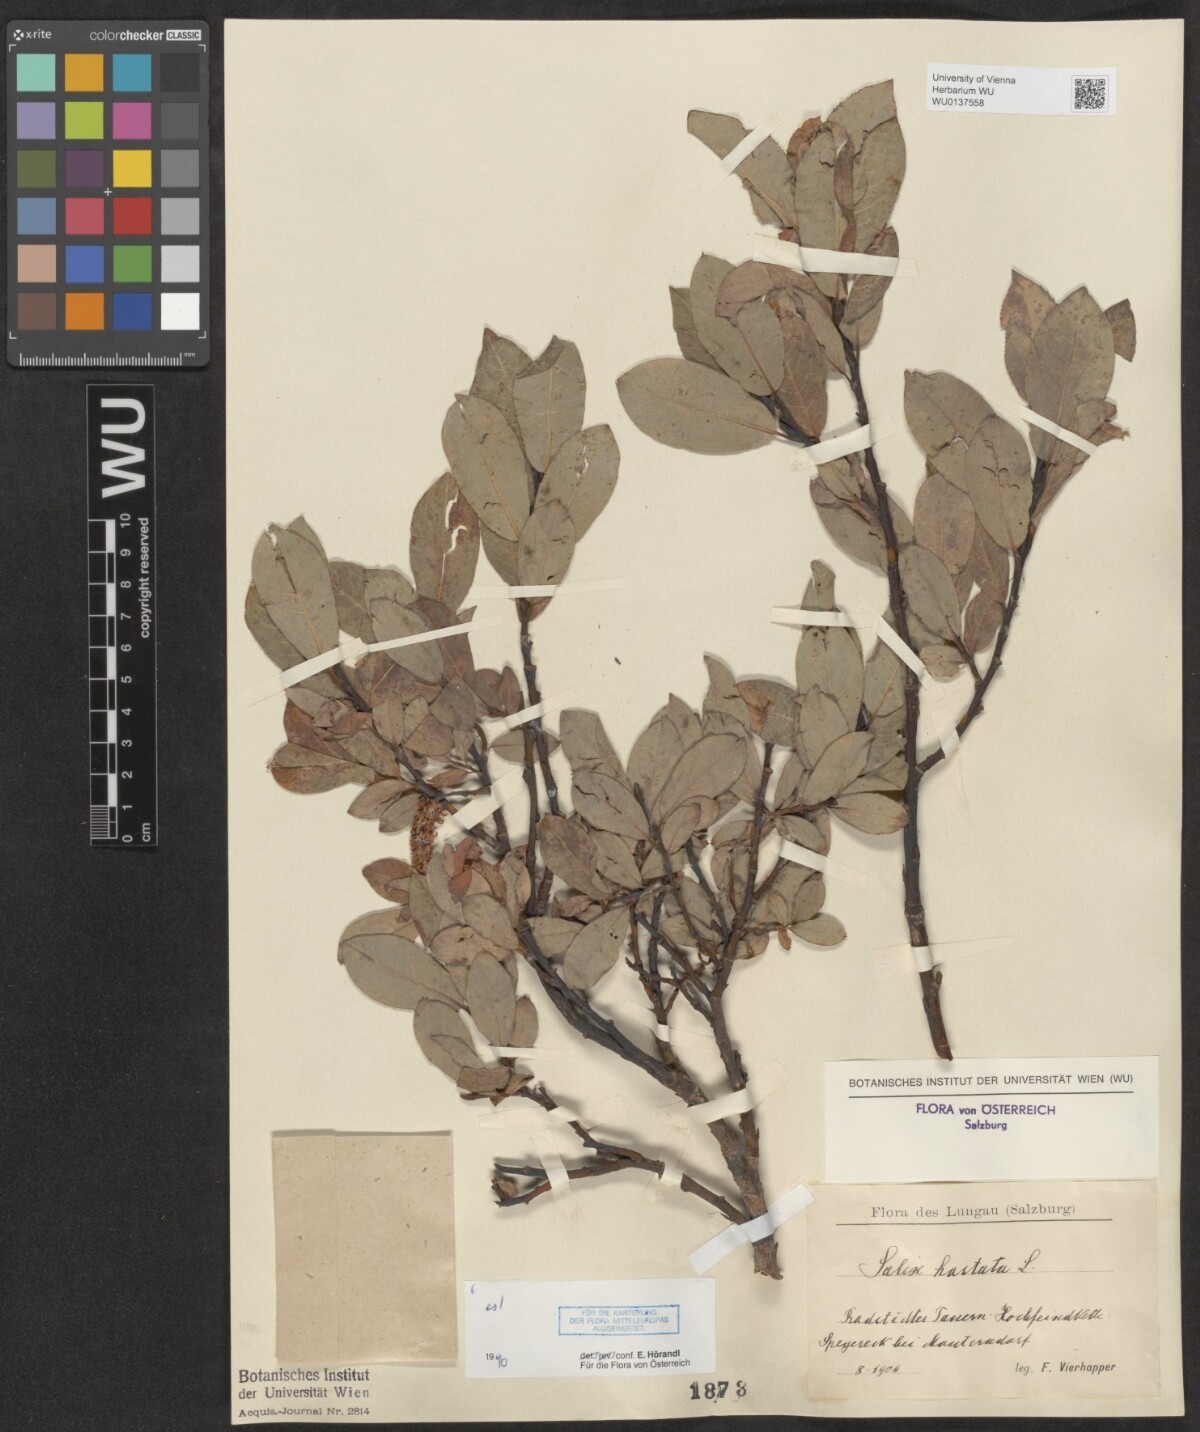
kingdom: Plantae
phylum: Tracheophyta
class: Magnoliopsida
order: Malpighiales
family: Salicaceae
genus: Salix
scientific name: Salix hastata
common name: Halberd willow
